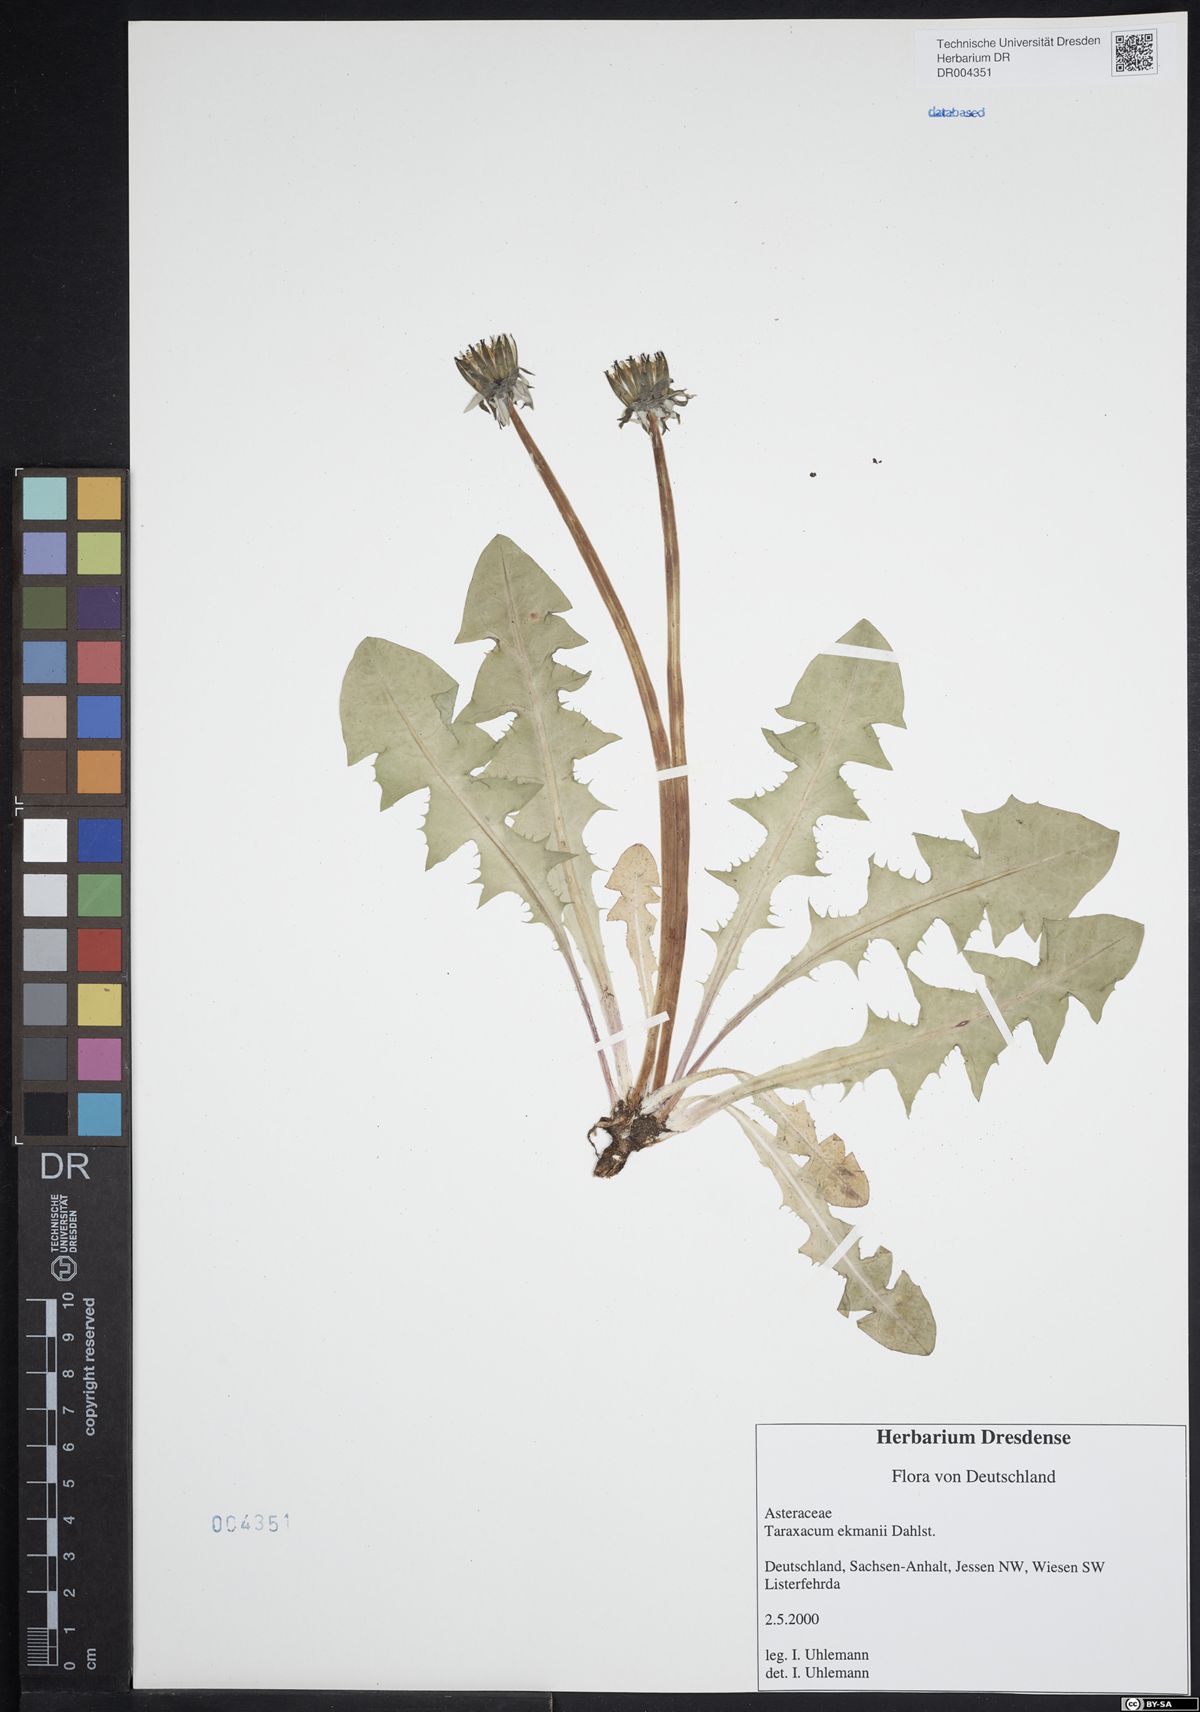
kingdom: Plantae
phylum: Tracheophyta
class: Magnoliopsida
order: Asterales
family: Asteraceae
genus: Taraxacum
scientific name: Taraxacum ekmanii
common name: Ekman's dandelion
